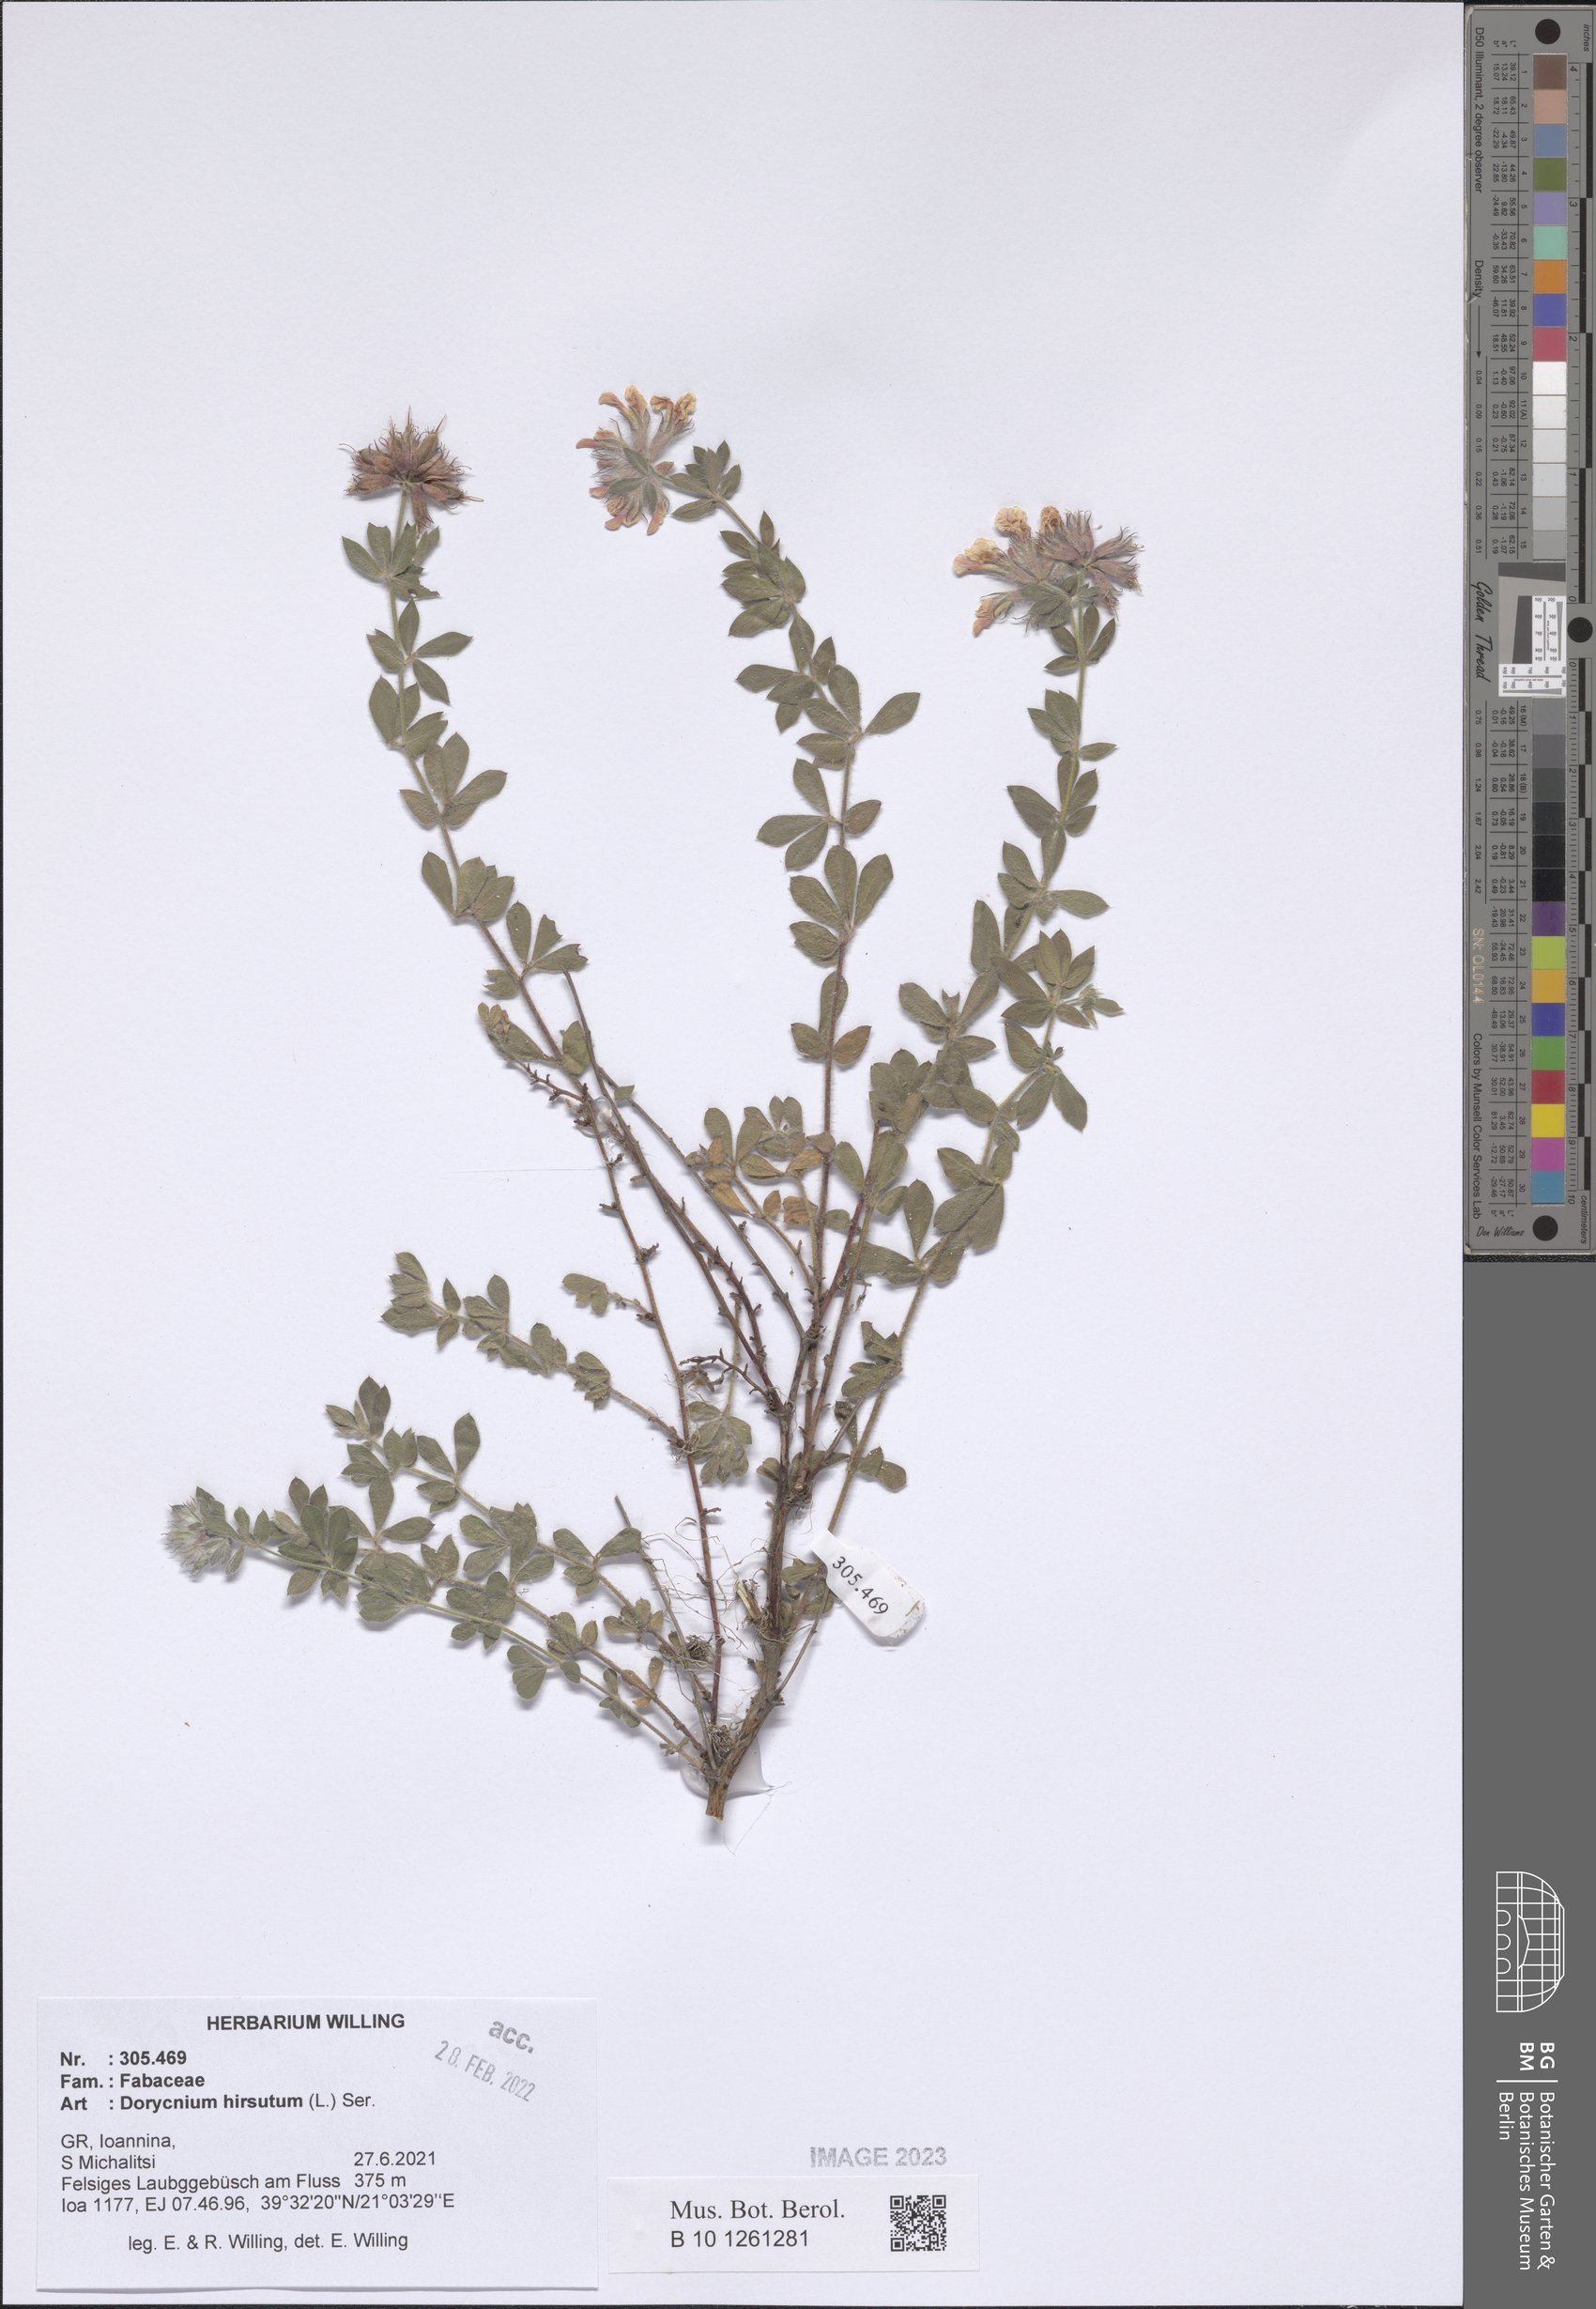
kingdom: Plantae
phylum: Tracheophyta
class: Magnoliopsida
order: Fabales
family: Fabaceae
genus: Lotus
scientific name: Lotus hirsutus
